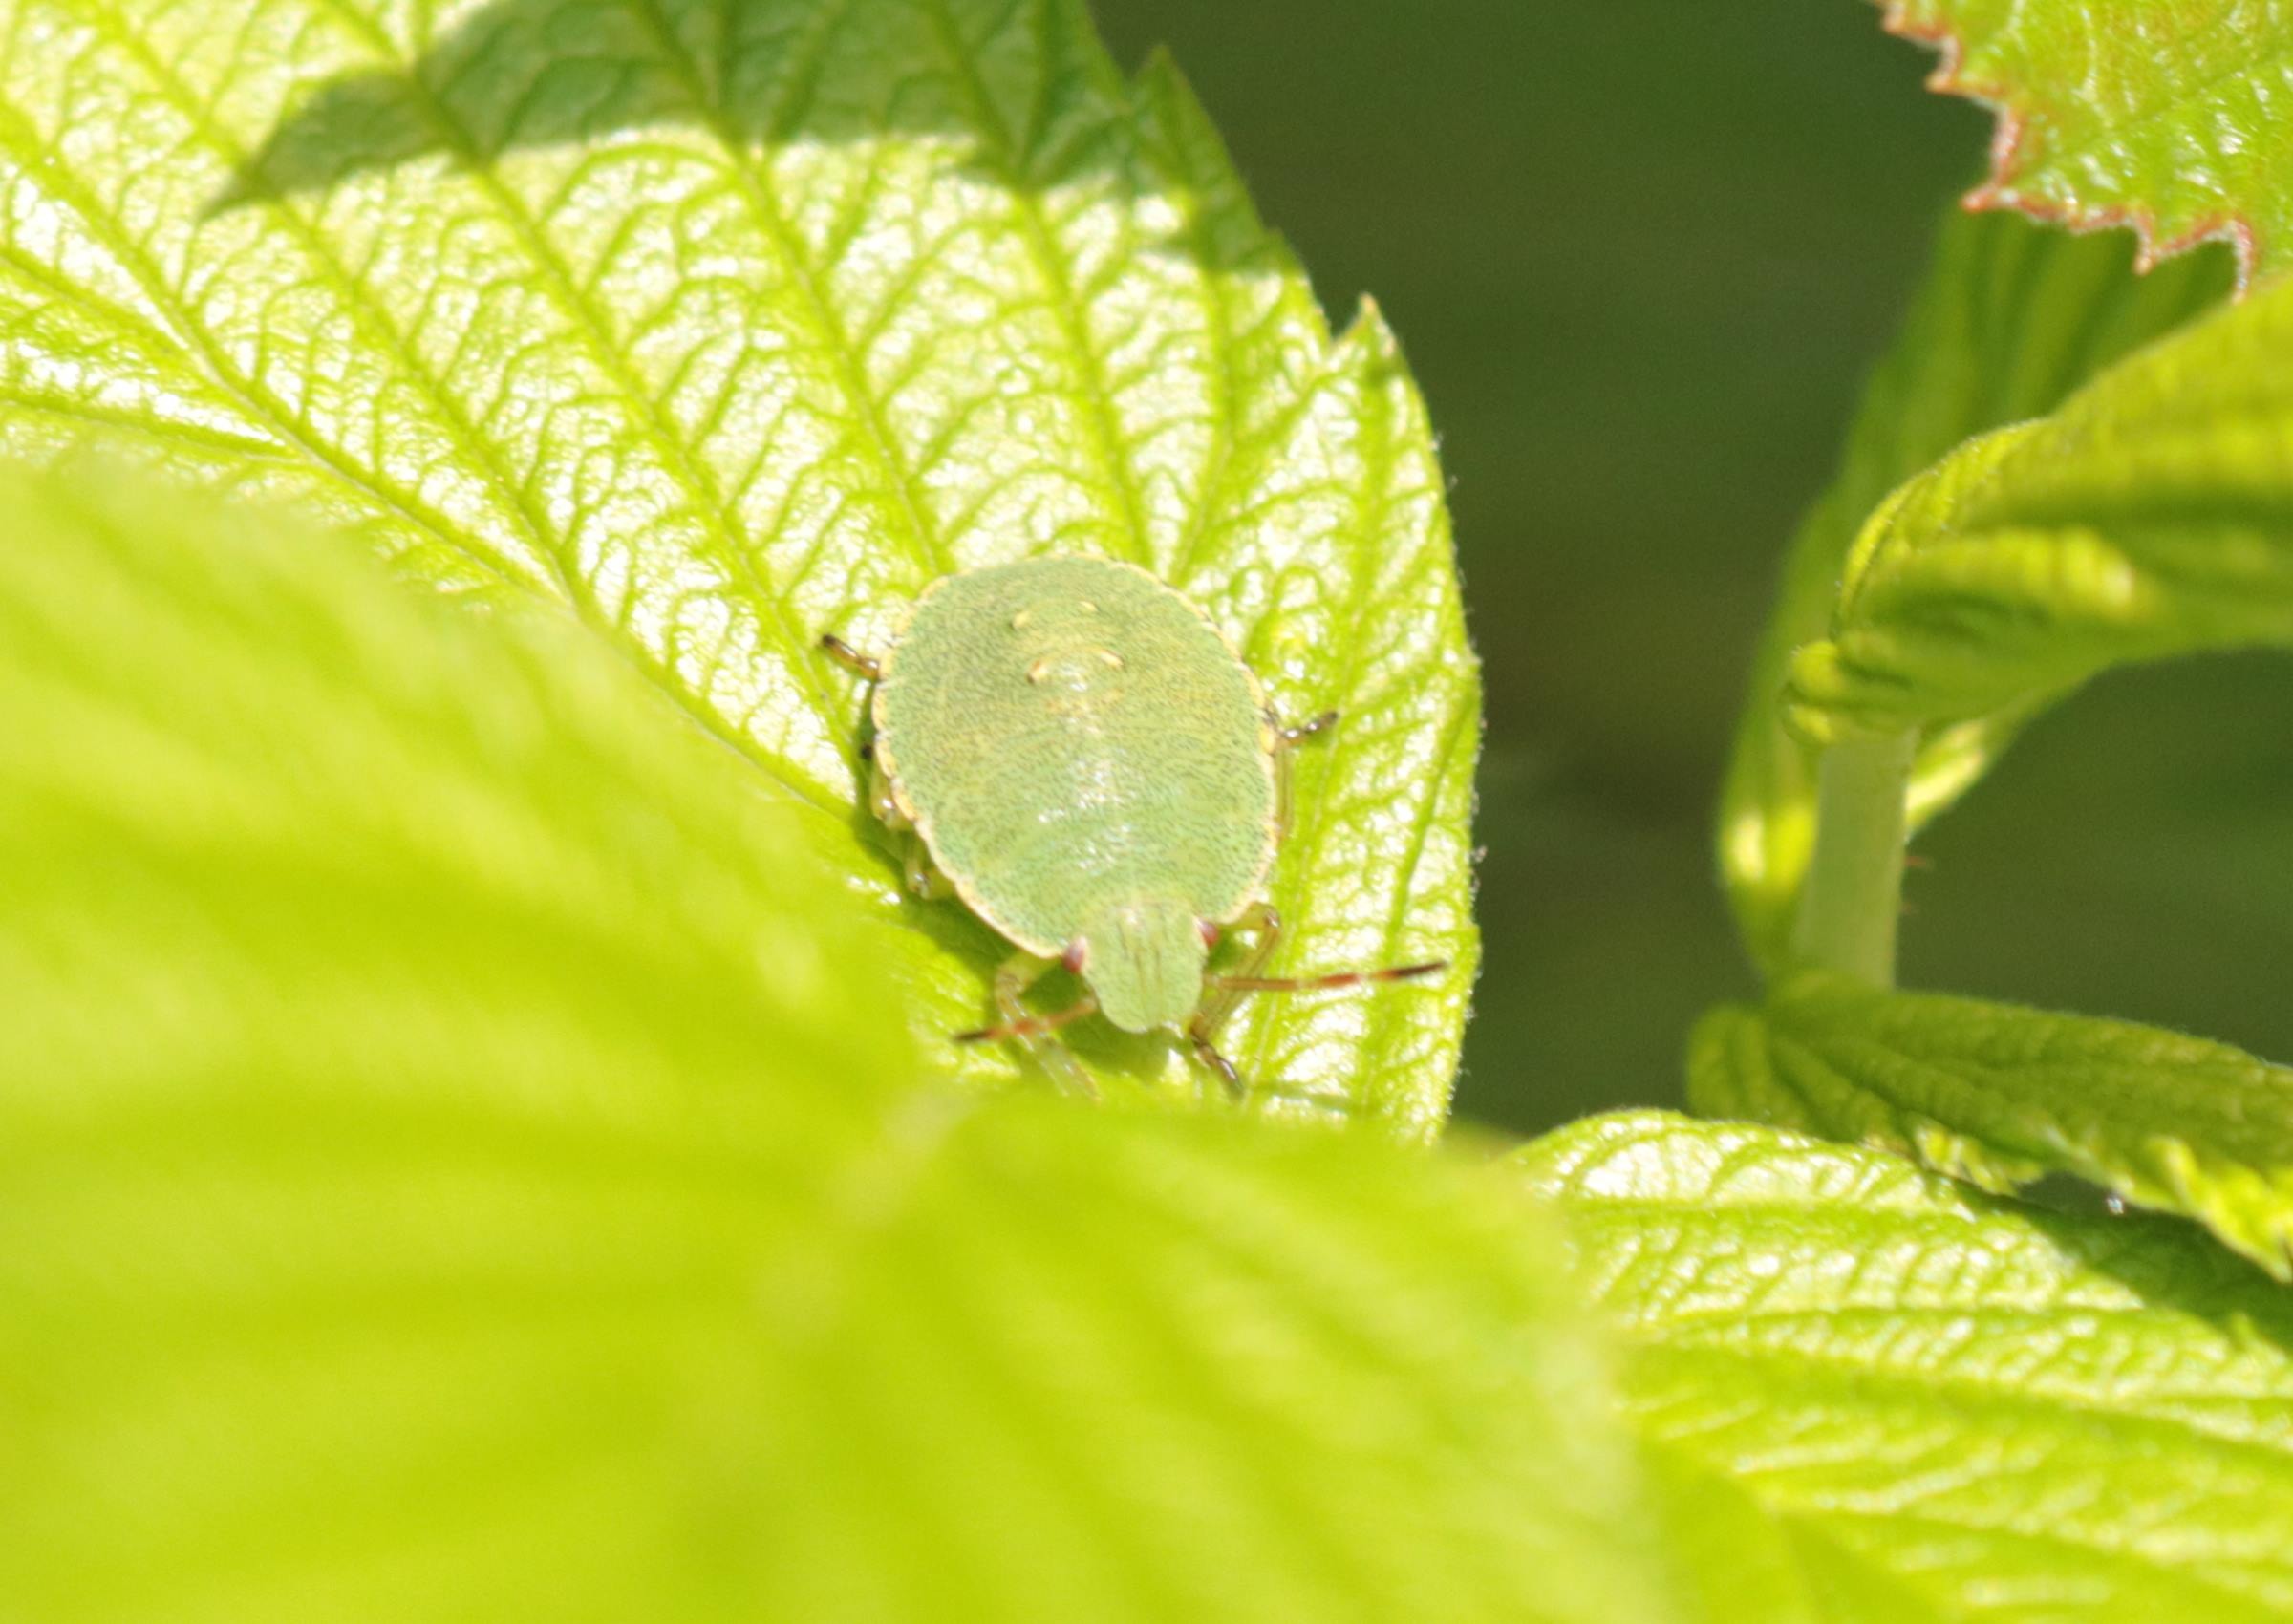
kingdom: Animalia
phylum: Arthropoda
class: Insecta
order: Hemiptera
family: Pentatomidae
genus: Palomena
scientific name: Palomena prasina
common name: Grøn bredtæge
